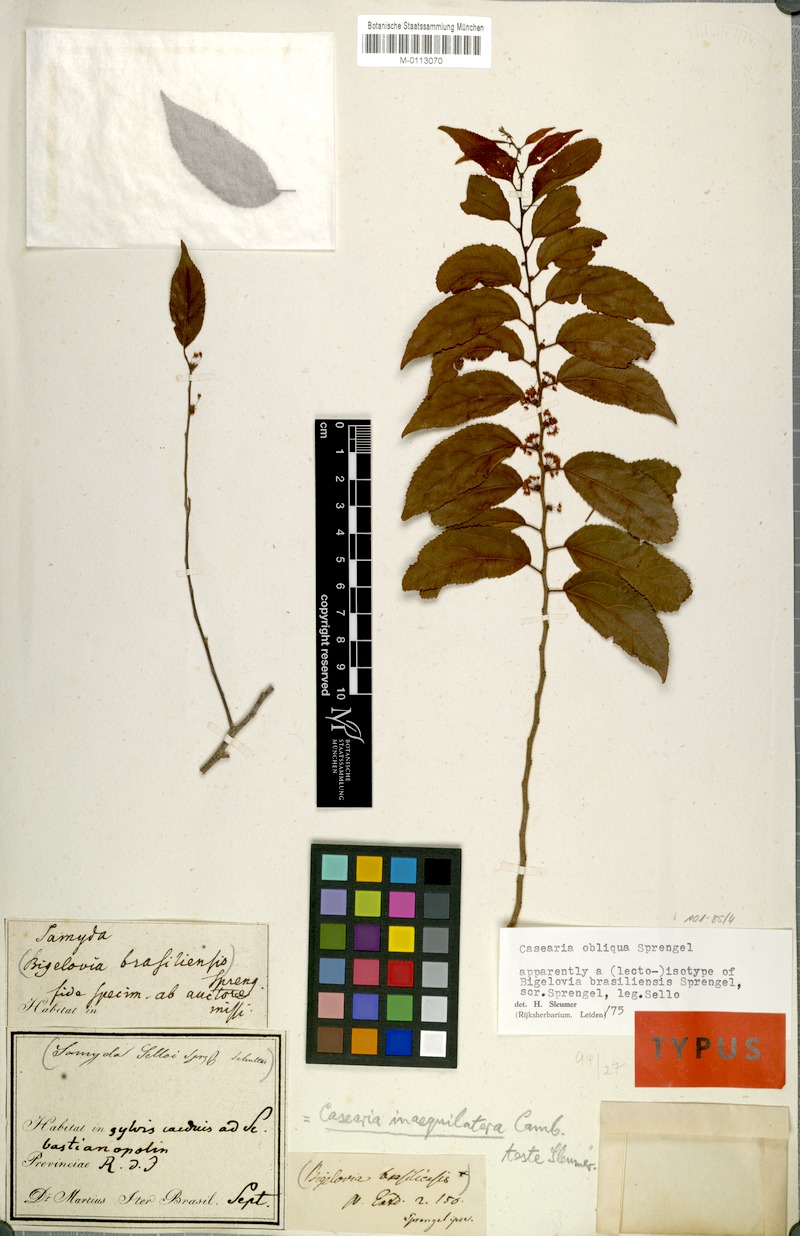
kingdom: Plantae
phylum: Tracheophyta
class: Magnoliopsida
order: Malpighiales
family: Salicaceae
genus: Casearia
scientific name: Casearia obliqua
